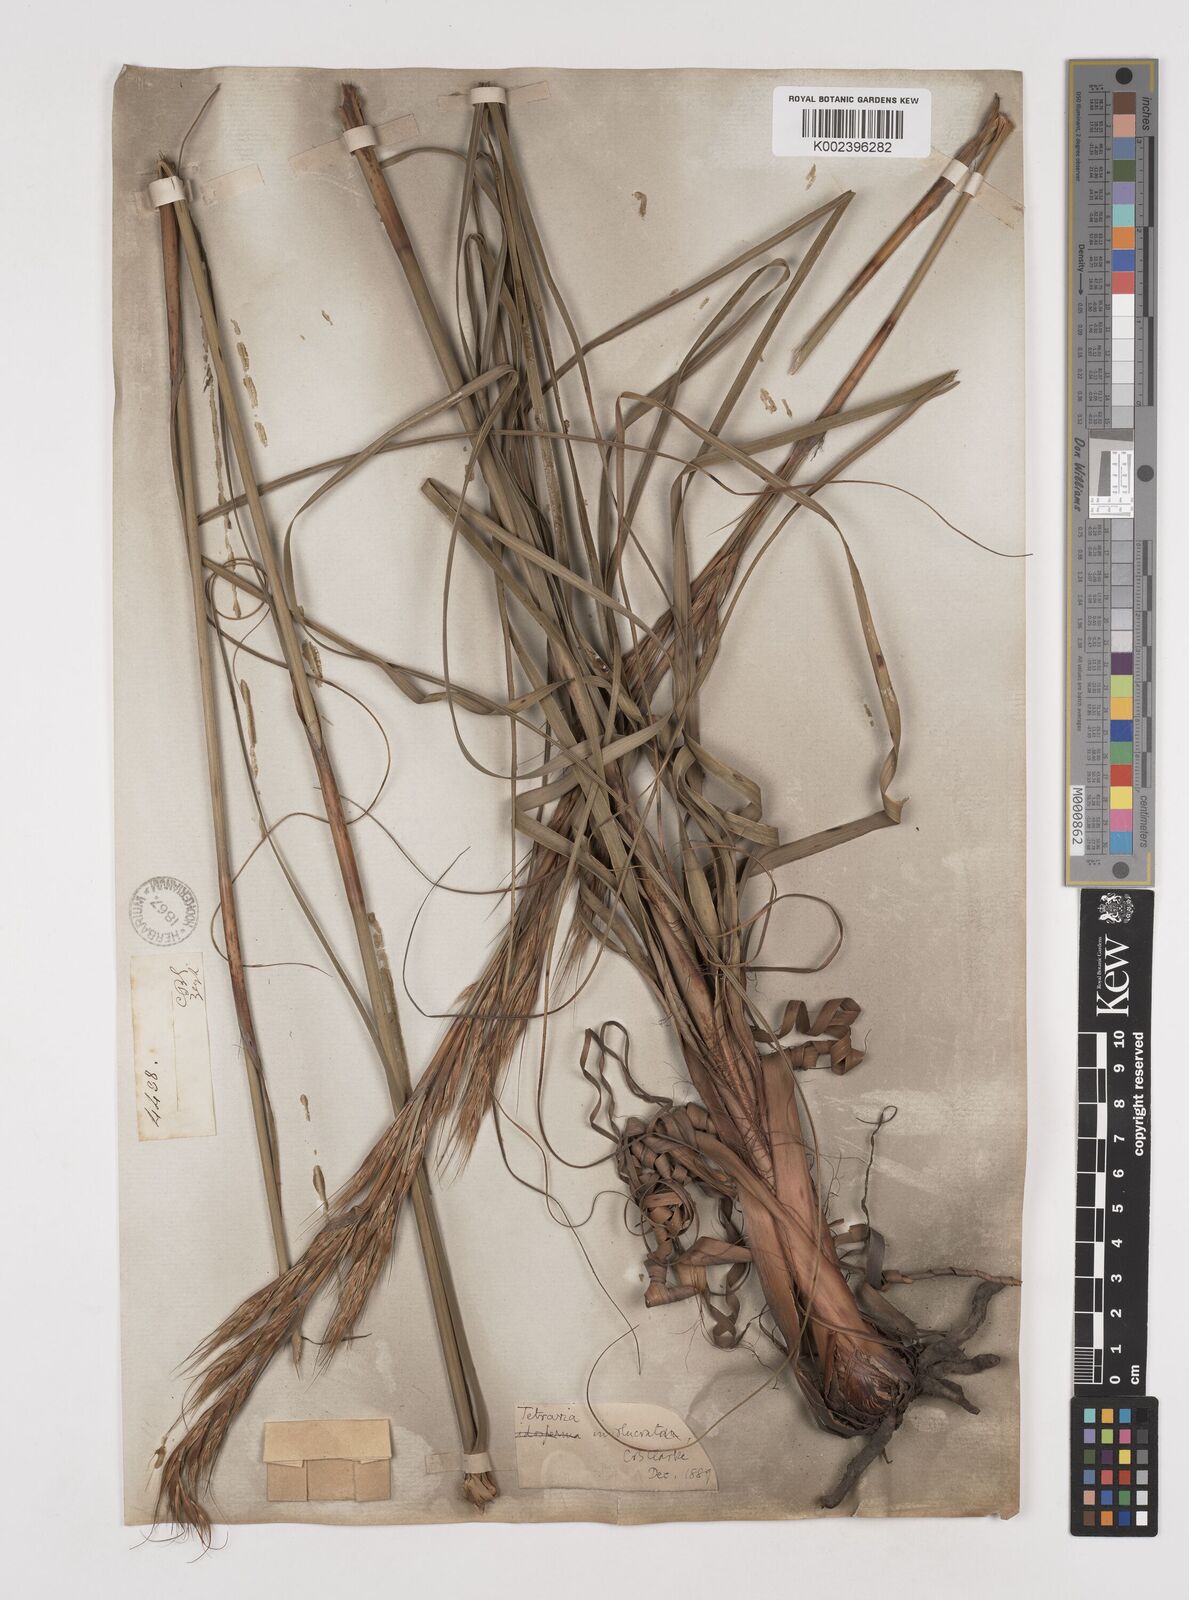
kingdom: Plantae
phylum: Tracheophyta
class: Liliopsida
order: Poales
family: Cyperaceae
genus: Tetraria
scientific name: Tetraria involucrata
